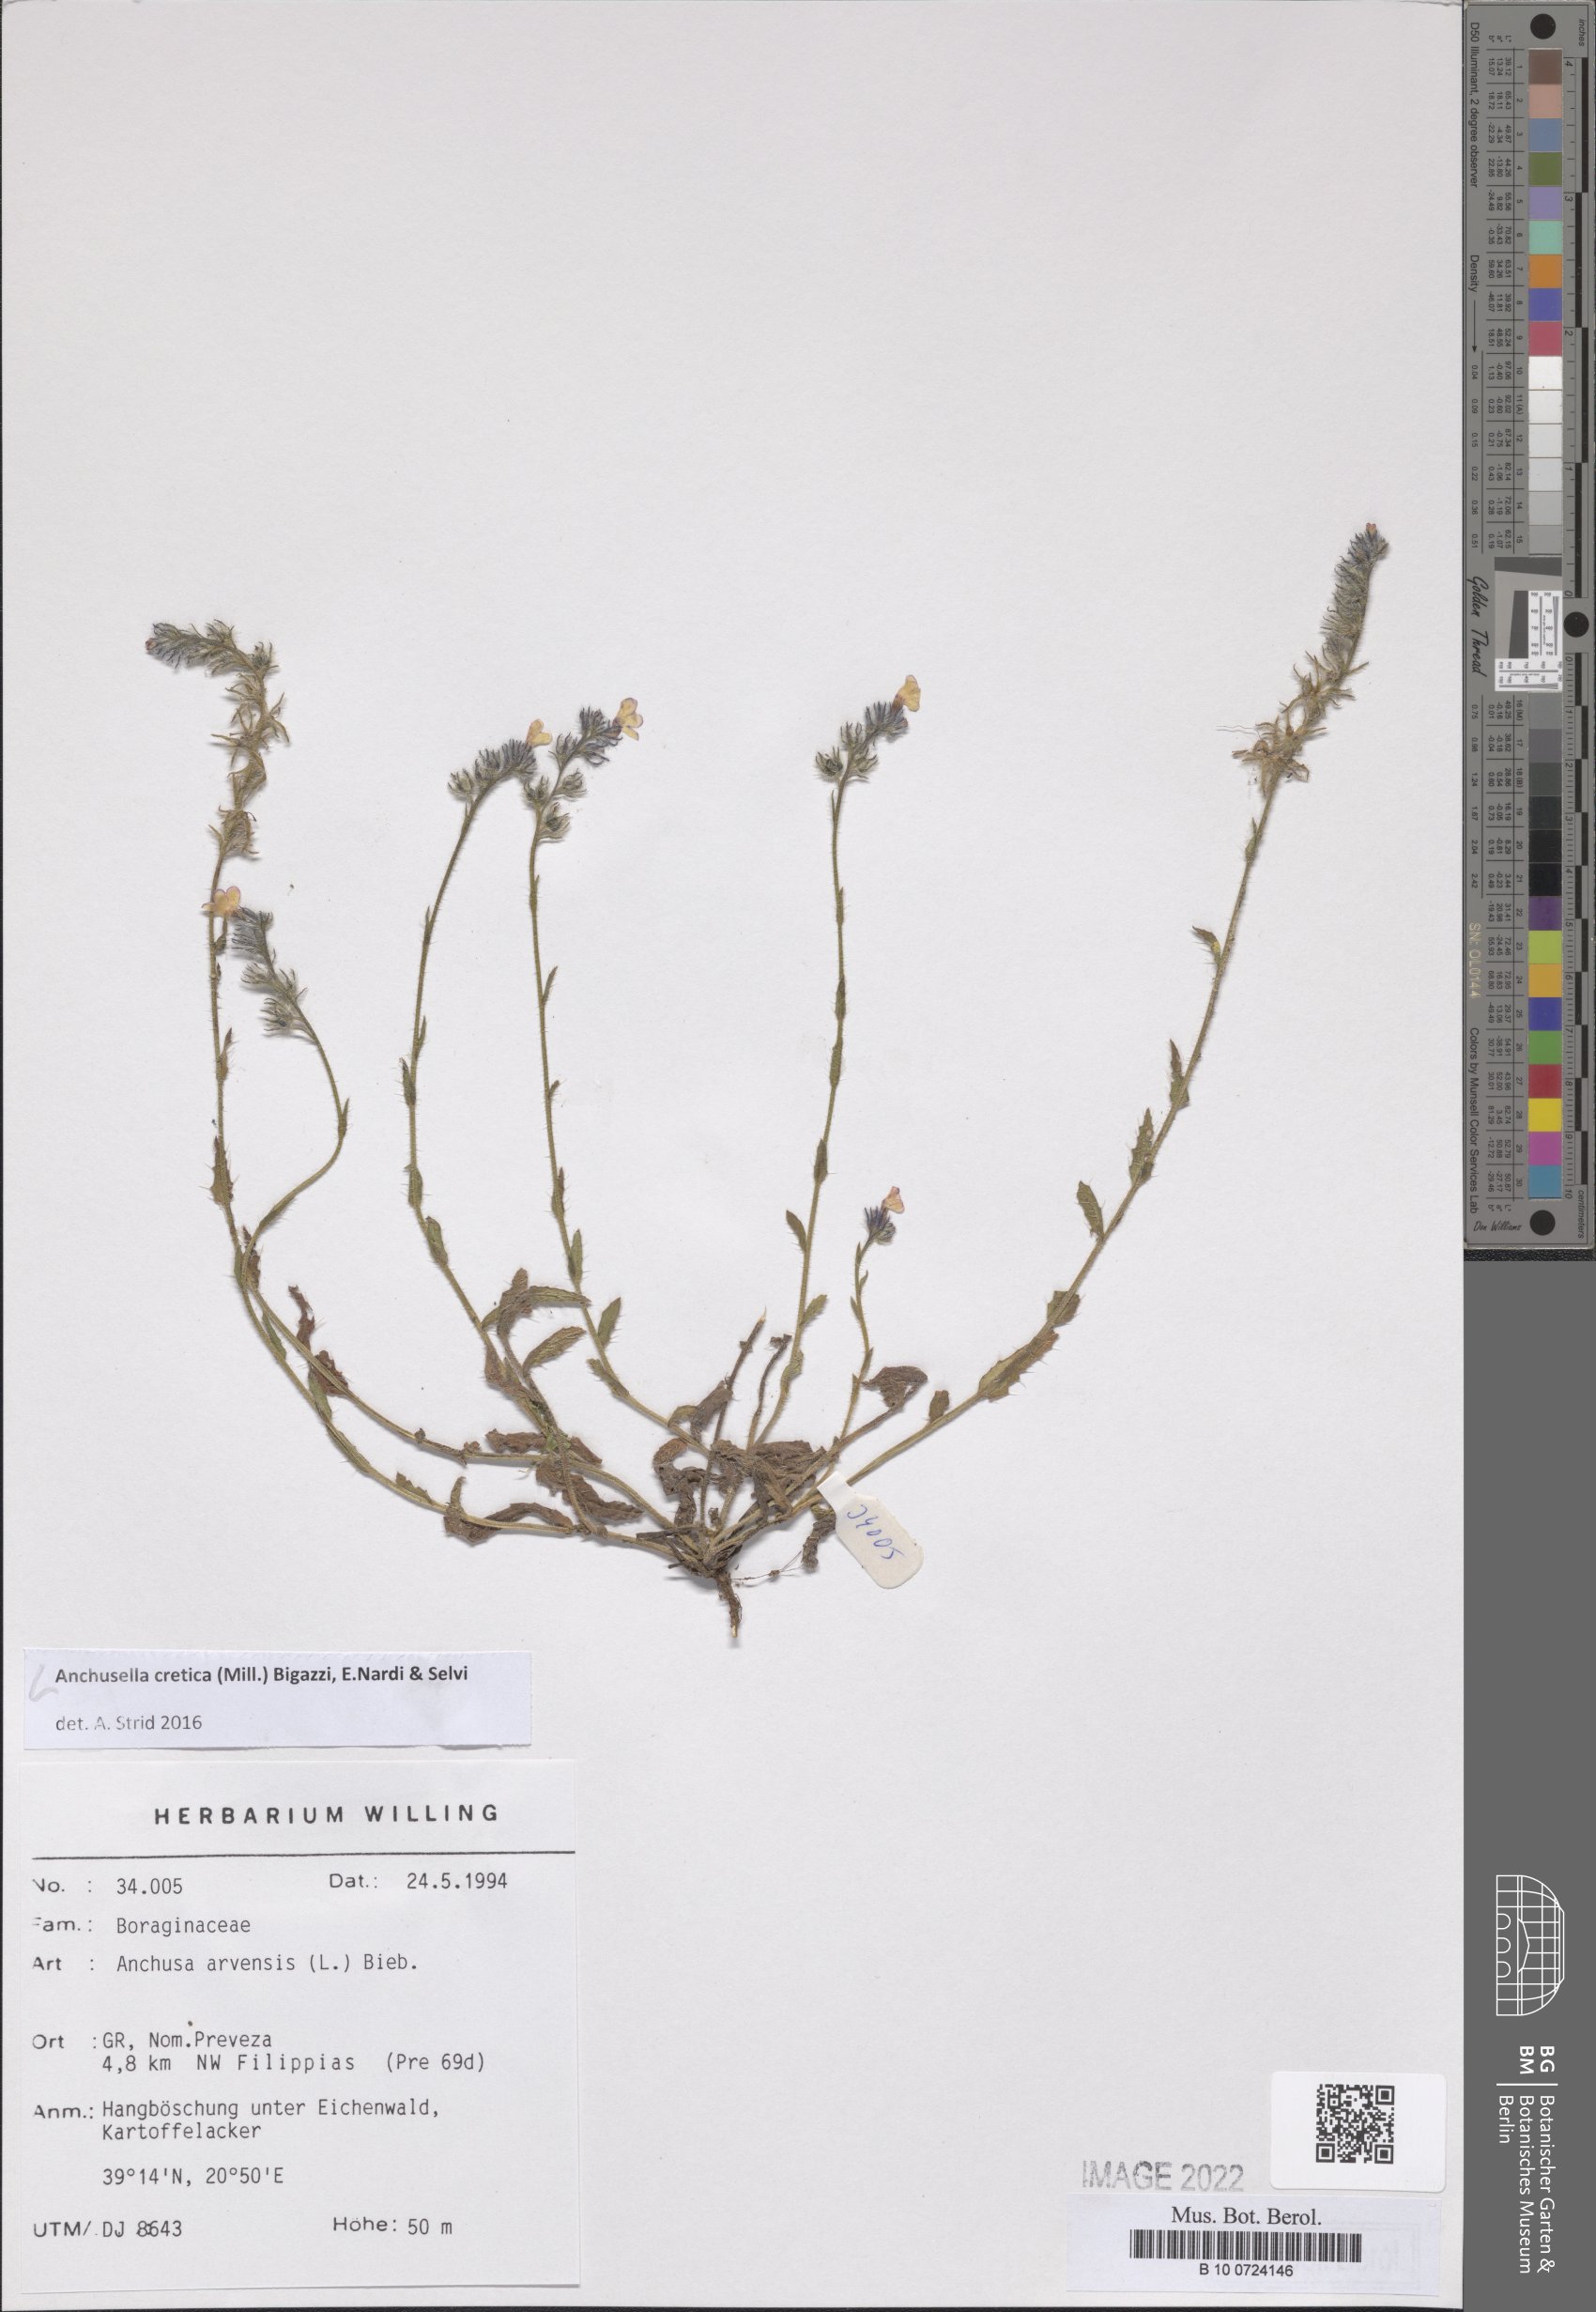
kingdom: Plantae
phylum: Tracheophyta
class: Magnoliopsida
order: Boraginales
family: Boraginaceae
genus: Anchusella
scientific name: Anchusella cretica
